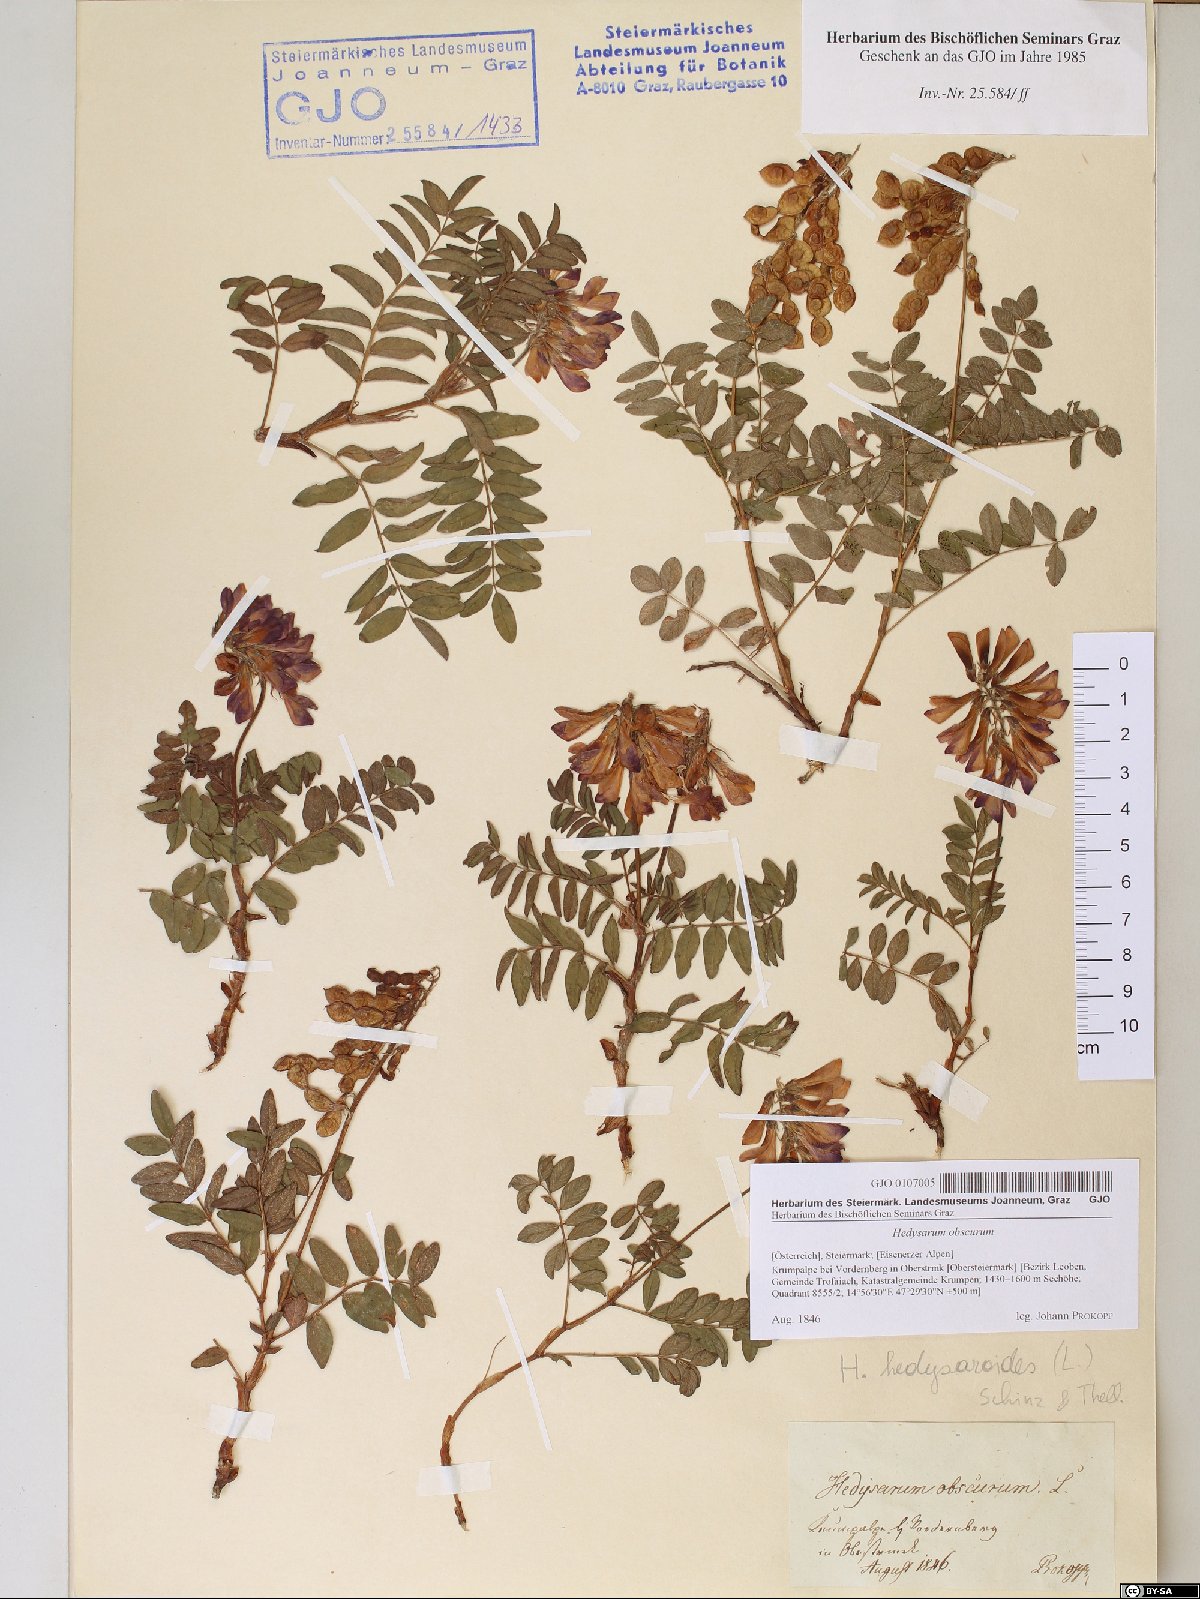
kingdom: Plantae
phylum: Tracheophyta
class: Magnoliopsida
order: Fabales
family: Fabaceae
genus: Hedysarum
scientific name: Hedysarum hedysaroides
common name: Alpine french-honeysuckle
